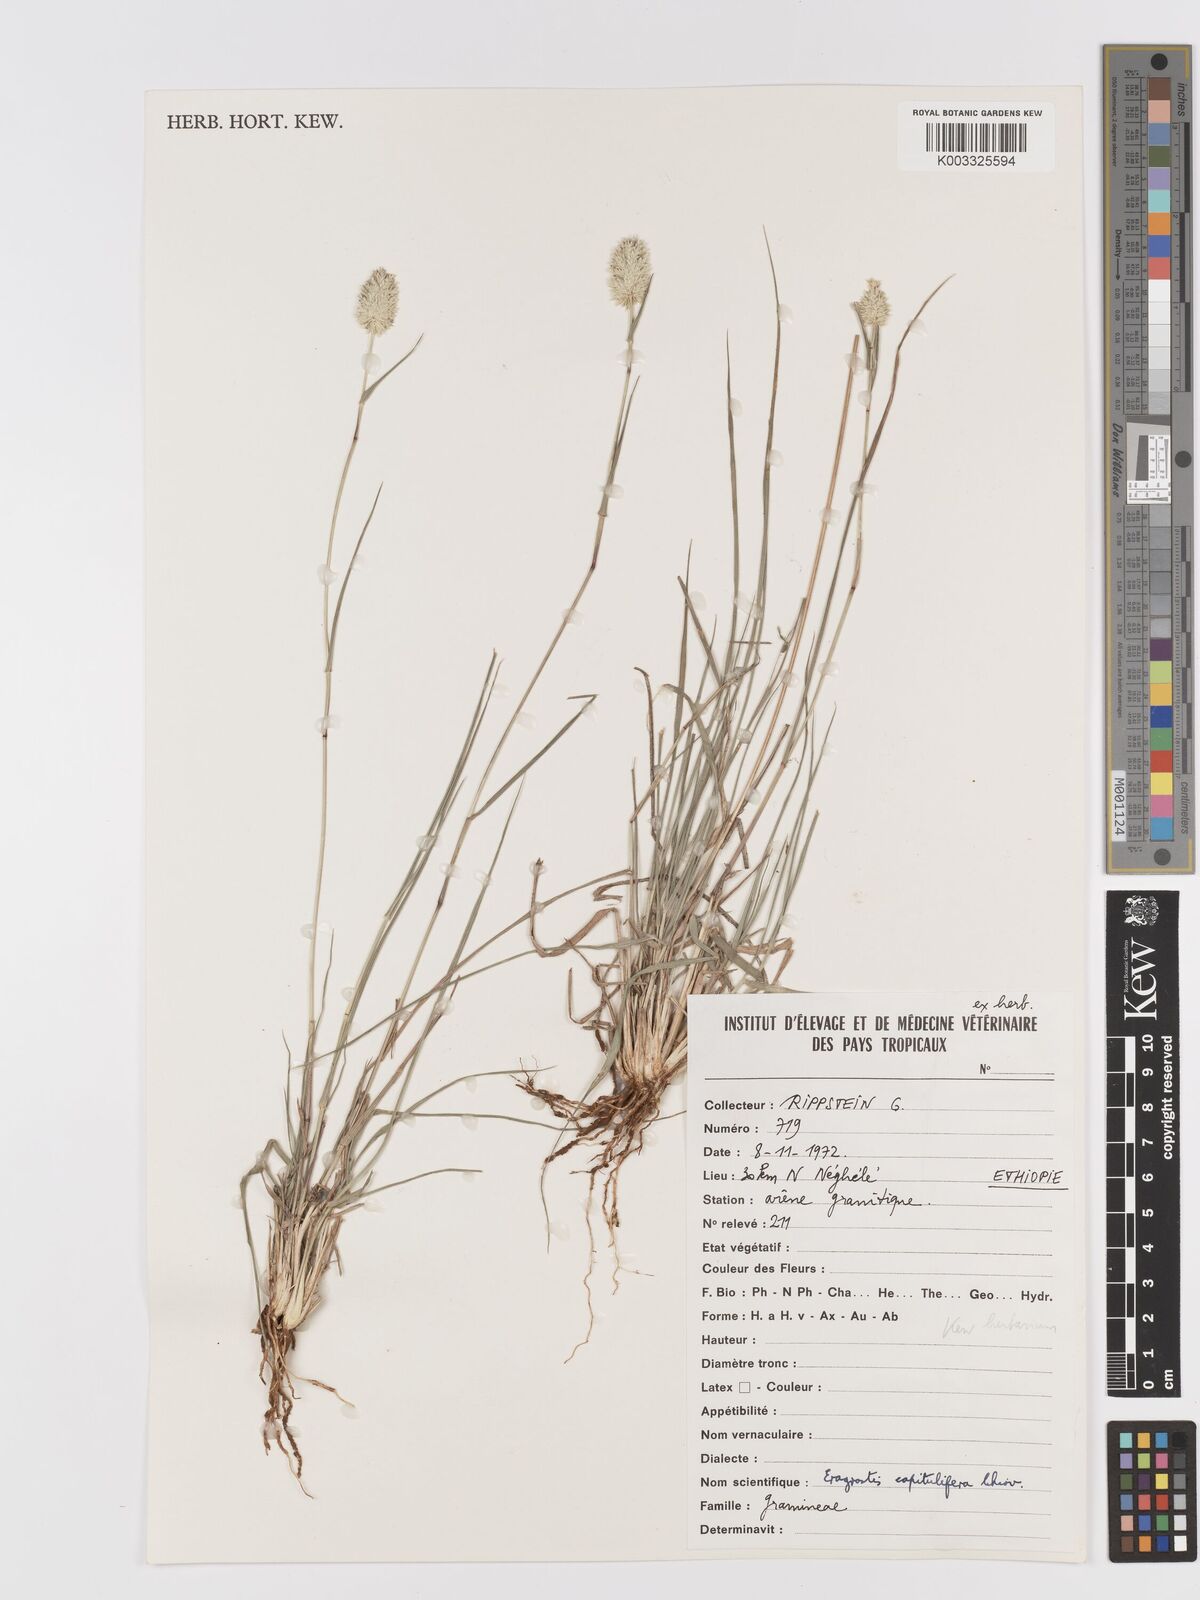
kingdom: Plantae
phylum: Tracheophyta
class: Liliopsida
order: Poales
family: Poaceae
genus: Eragrostis
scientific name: Eragrostis capitulifera
